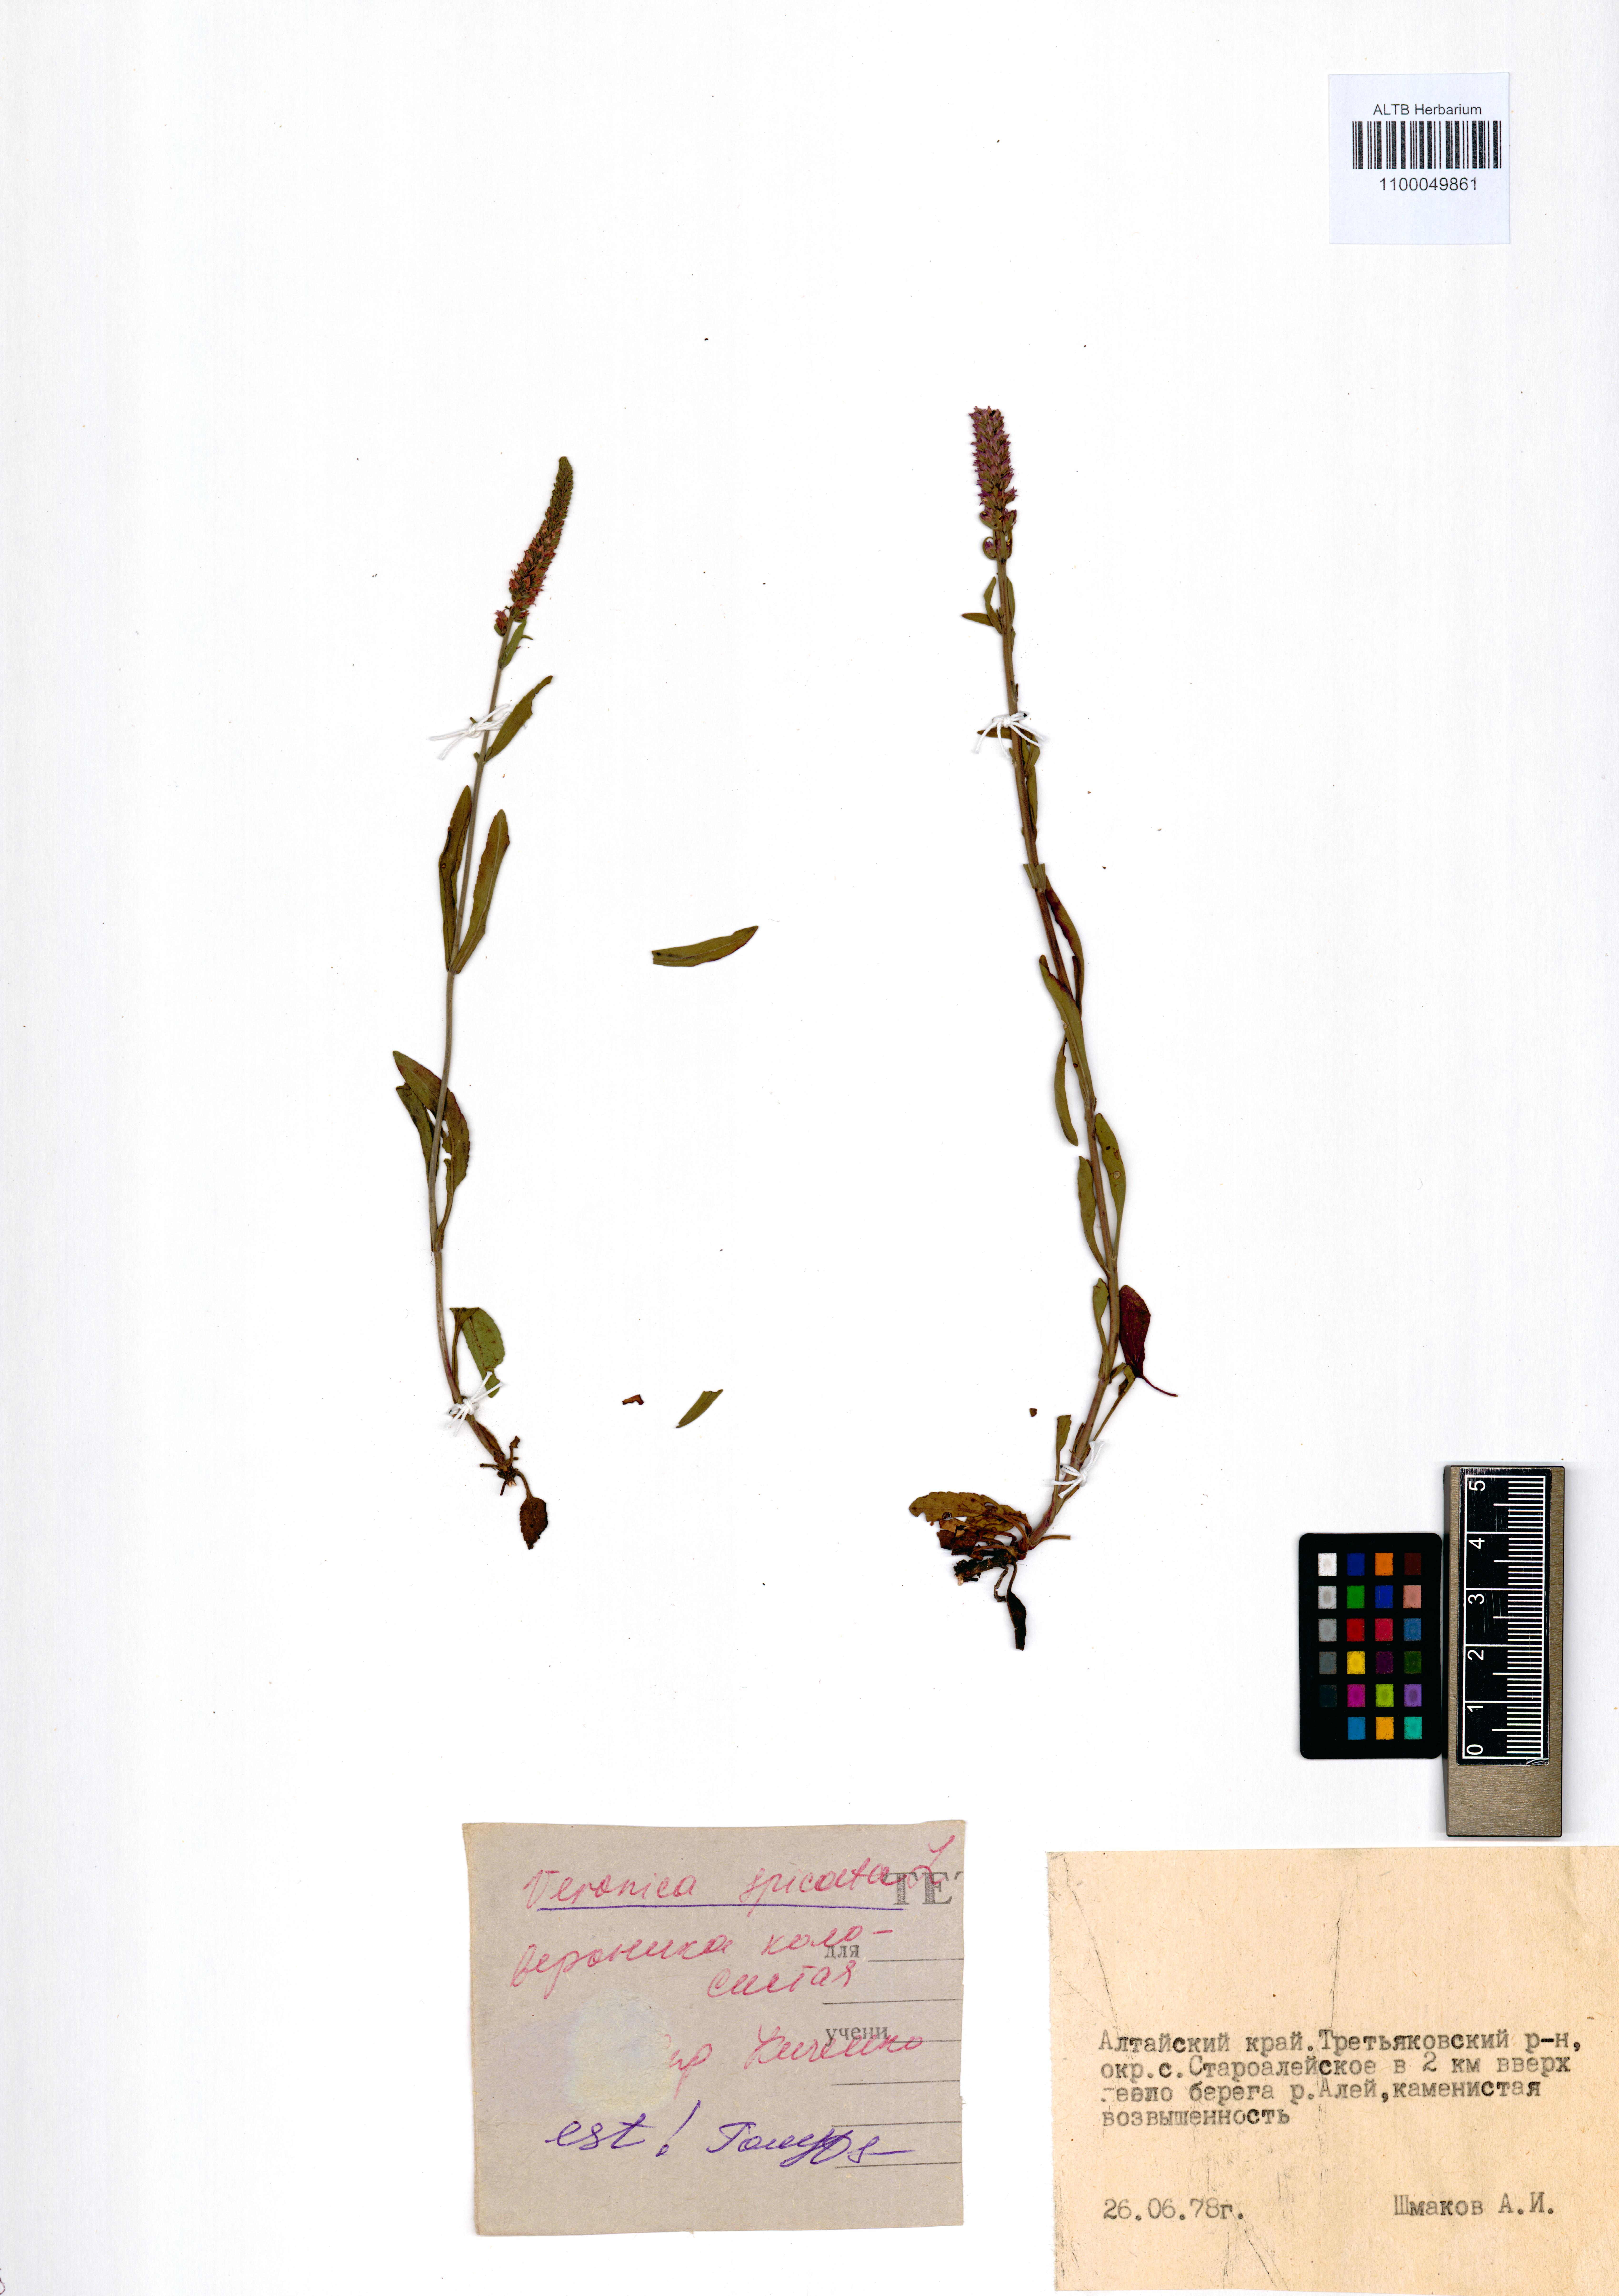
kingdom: Plantae
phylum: Tracheophyta
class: Magnoliopsida
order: Lamiales
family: Plantaginaceae
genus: Veronica
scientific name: Veronica spicata
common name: Spiked speedwell
